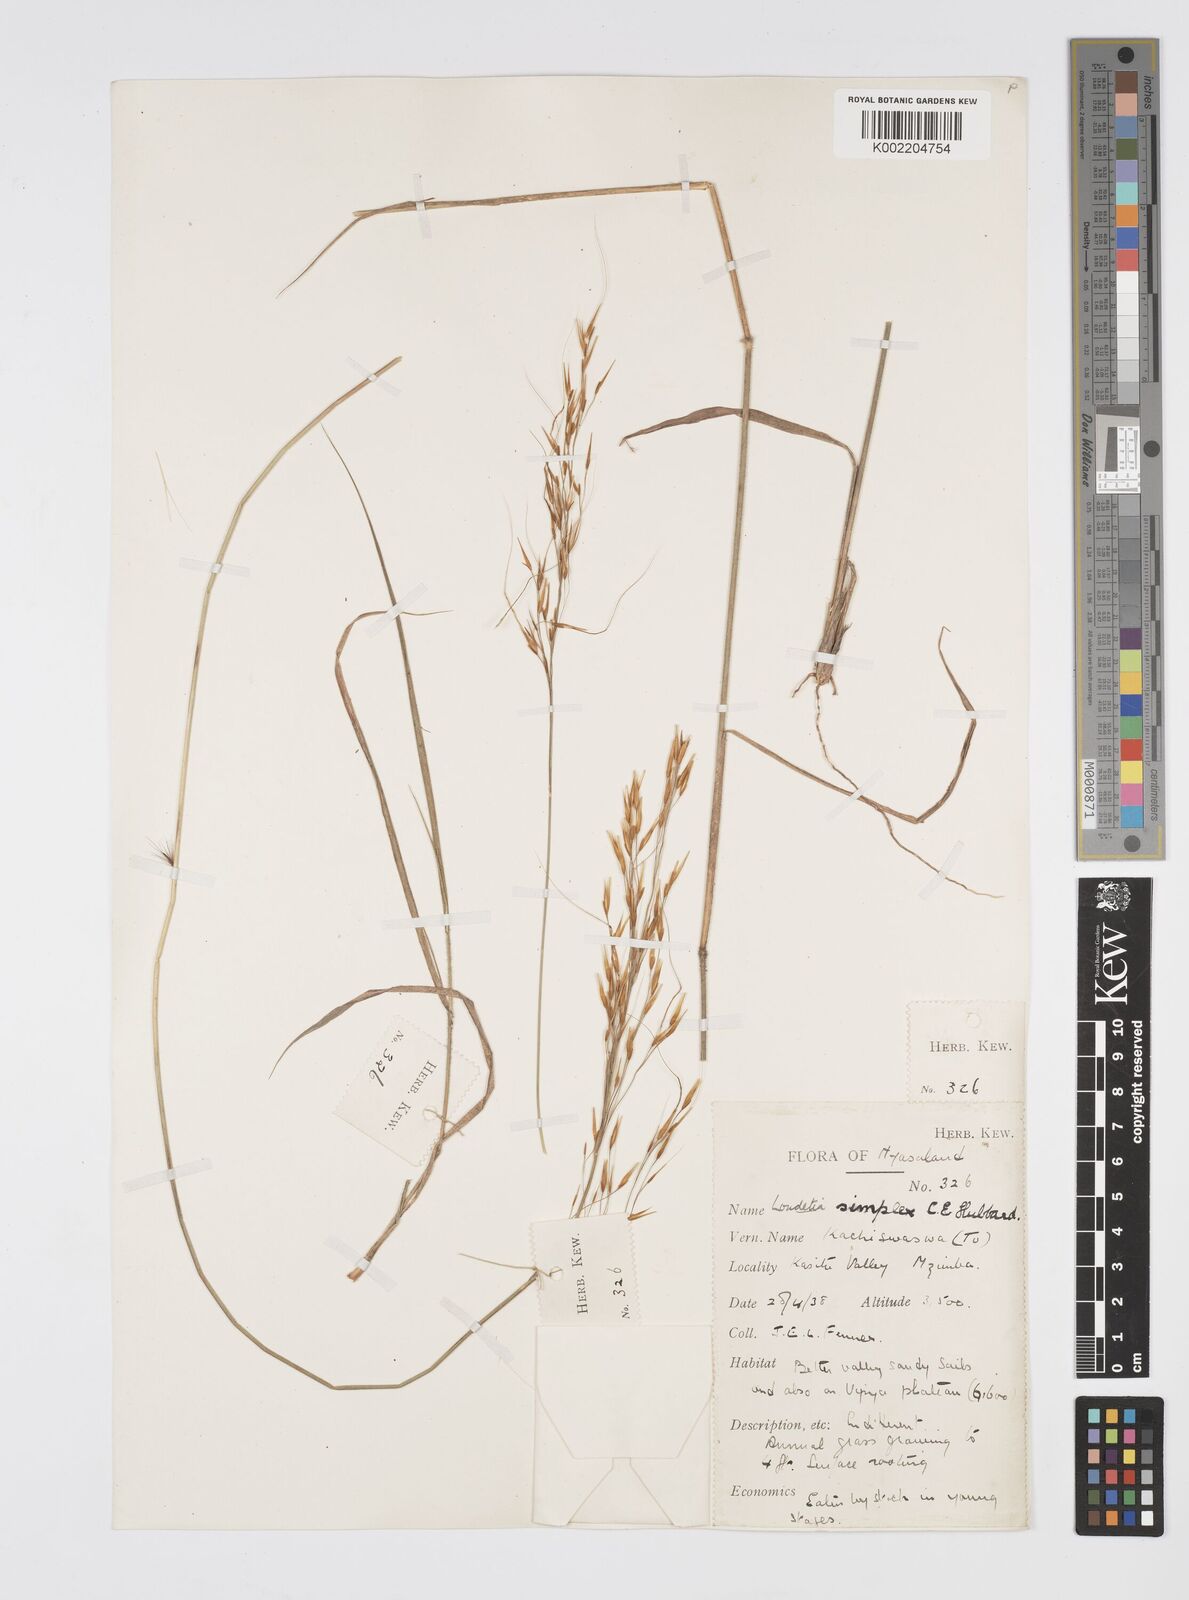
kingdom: Plantae
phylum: Tracheophyta
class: Liliopsida
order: Poales
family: Poaceae
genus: Loudetia
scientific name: Loudetia simplex
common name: Common russet grass
